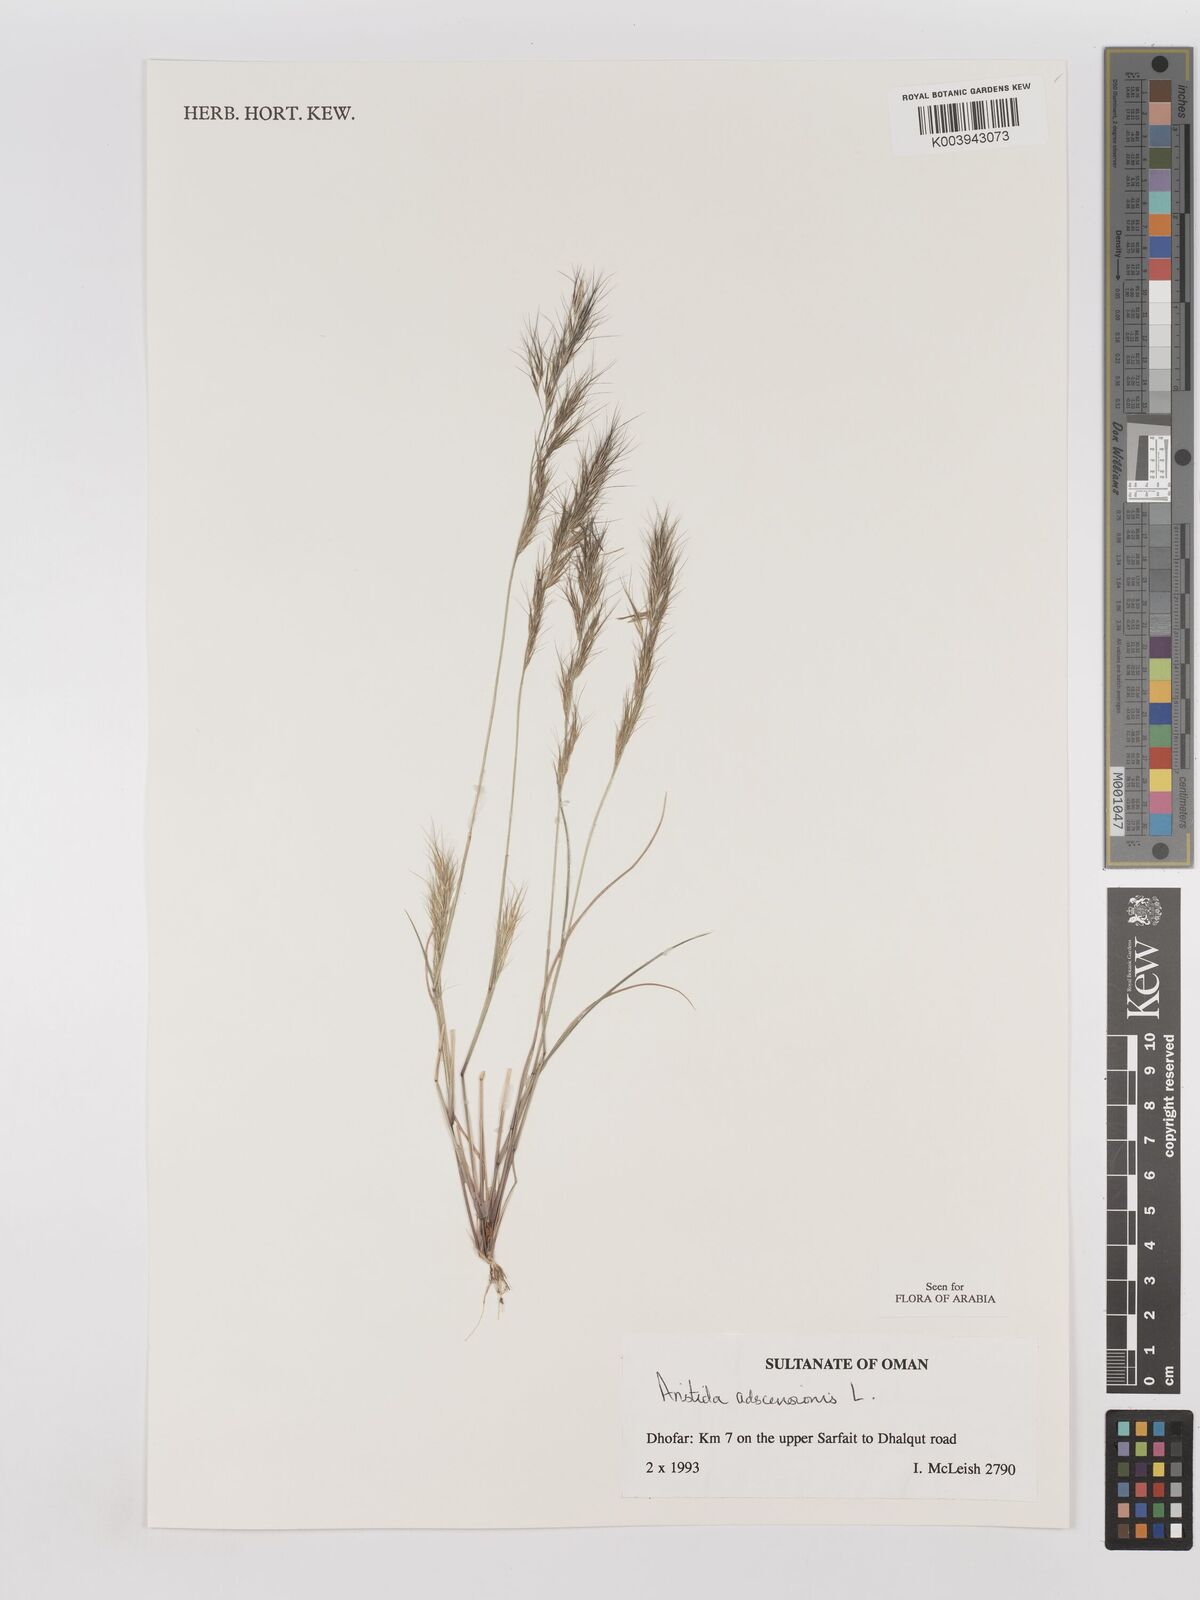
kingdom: Plantae
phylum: Tracheophyta
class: Liliopsida
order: Poales
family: Poaceae
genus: Aristida
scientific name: Aristida adscensionis
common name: Sixweeks threeawn
